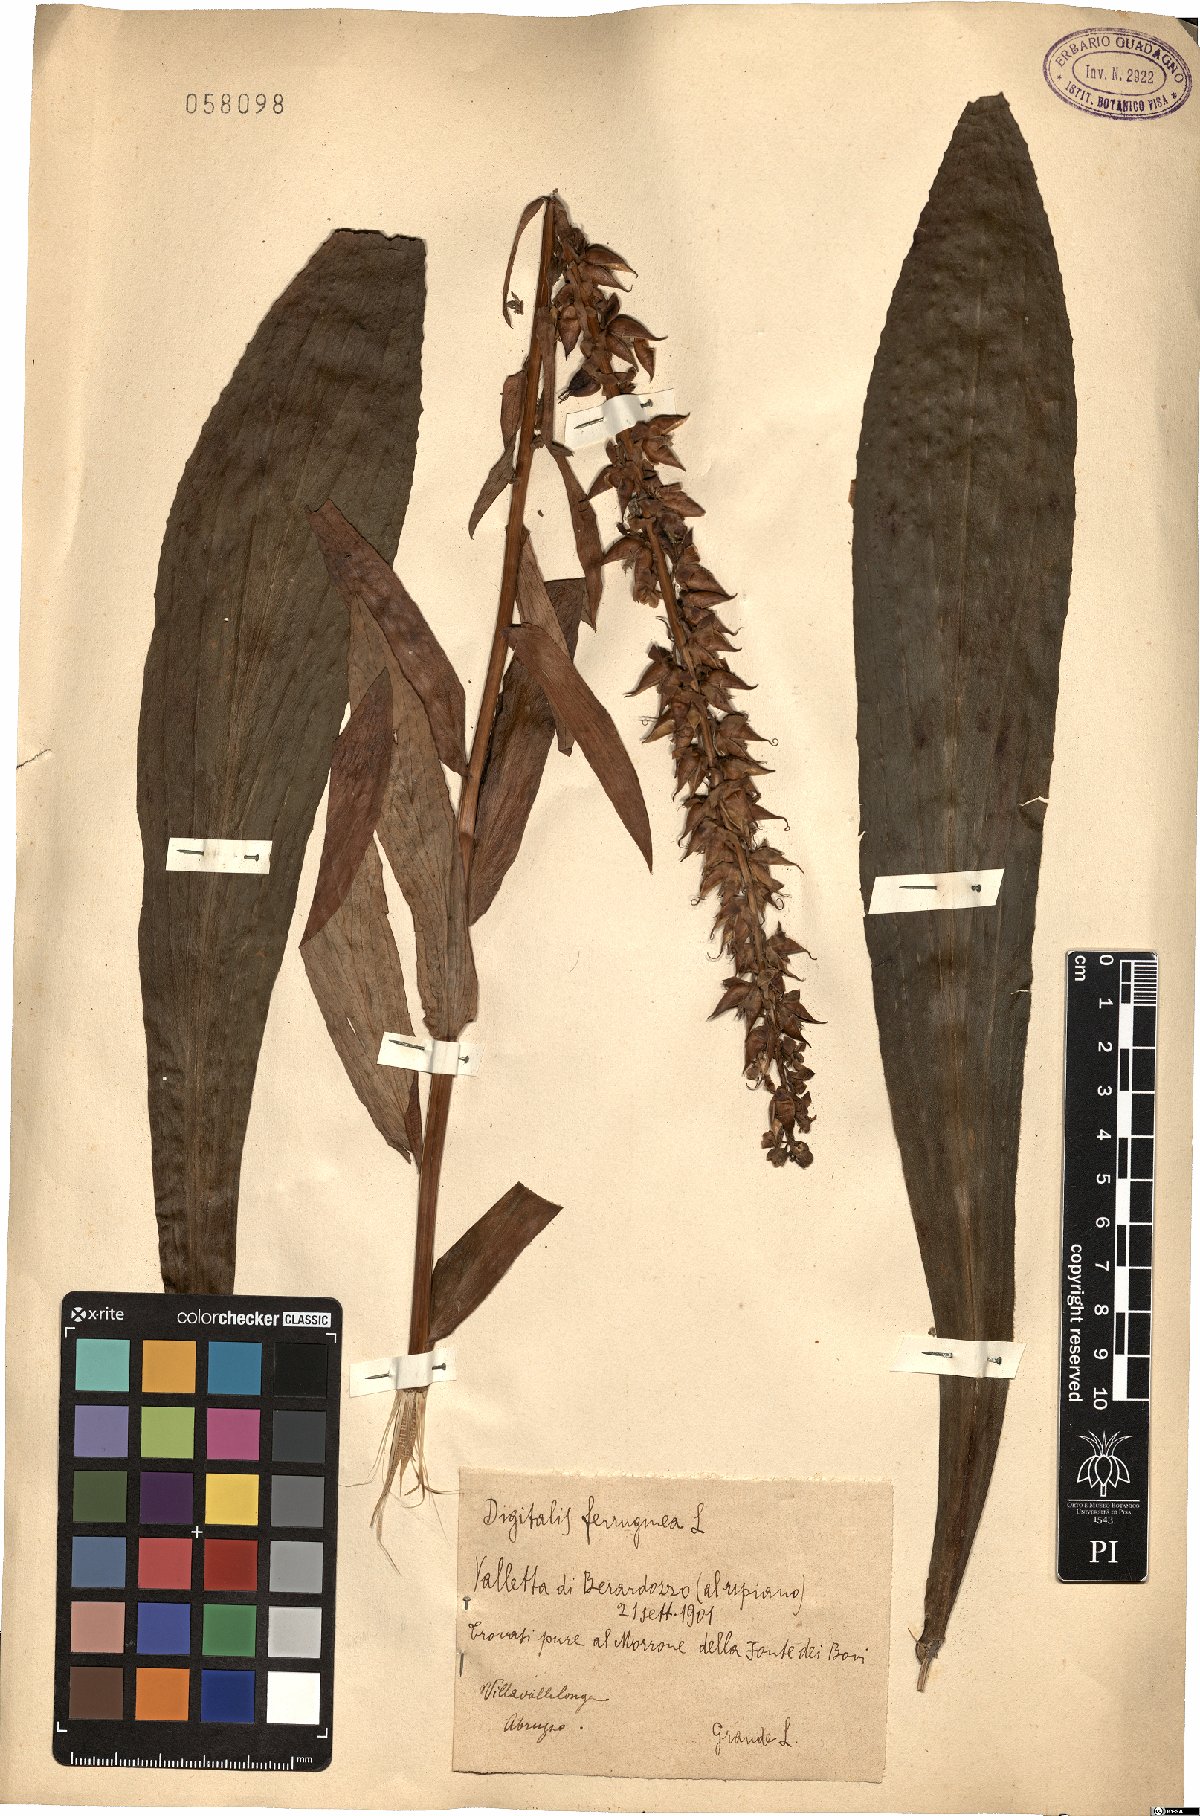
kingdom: Plantae
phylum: Tracheophyta
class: Magnoliopsida
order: Lamiales
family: Plantaginaceae
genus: Digitalis
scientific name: Digitalis ferruginea
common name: Rusty foxglove
